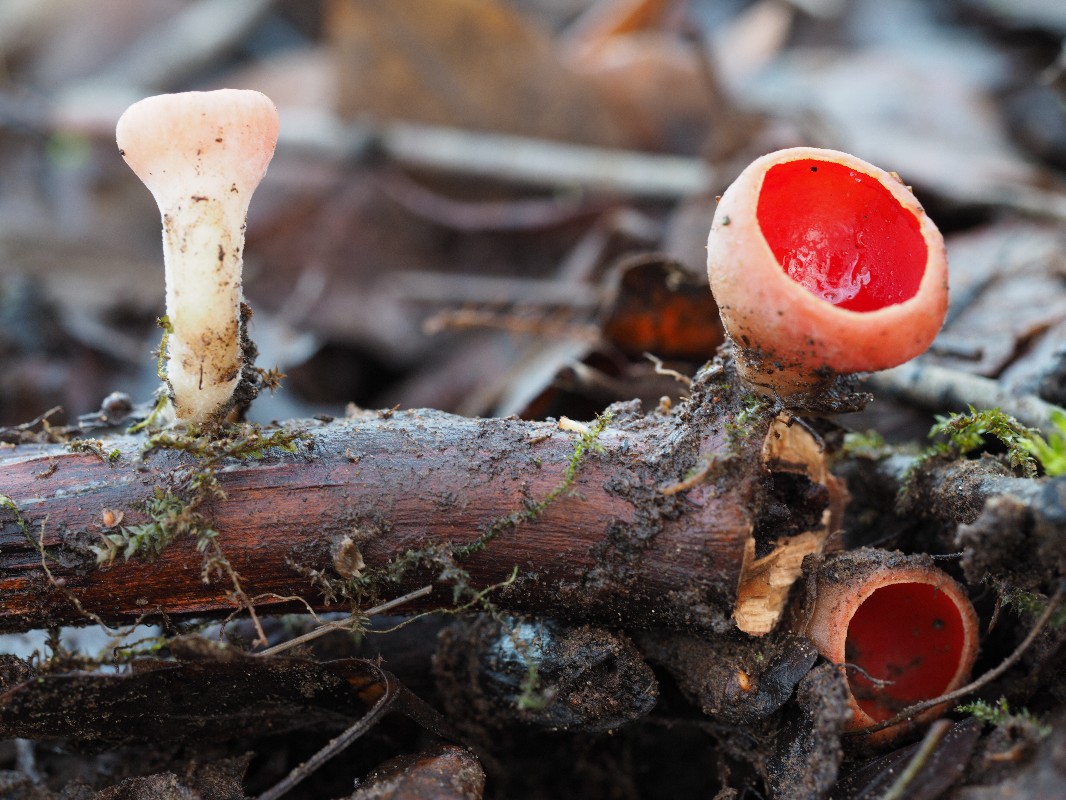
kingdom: Fungi
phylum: Ascomycota
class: Pezizomycetes
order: Pezizales
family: Sarcoscyphaceae
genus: Sarcoscypha
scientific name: Sarcoscypha austriaca
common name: krølhåret pragtbæger
